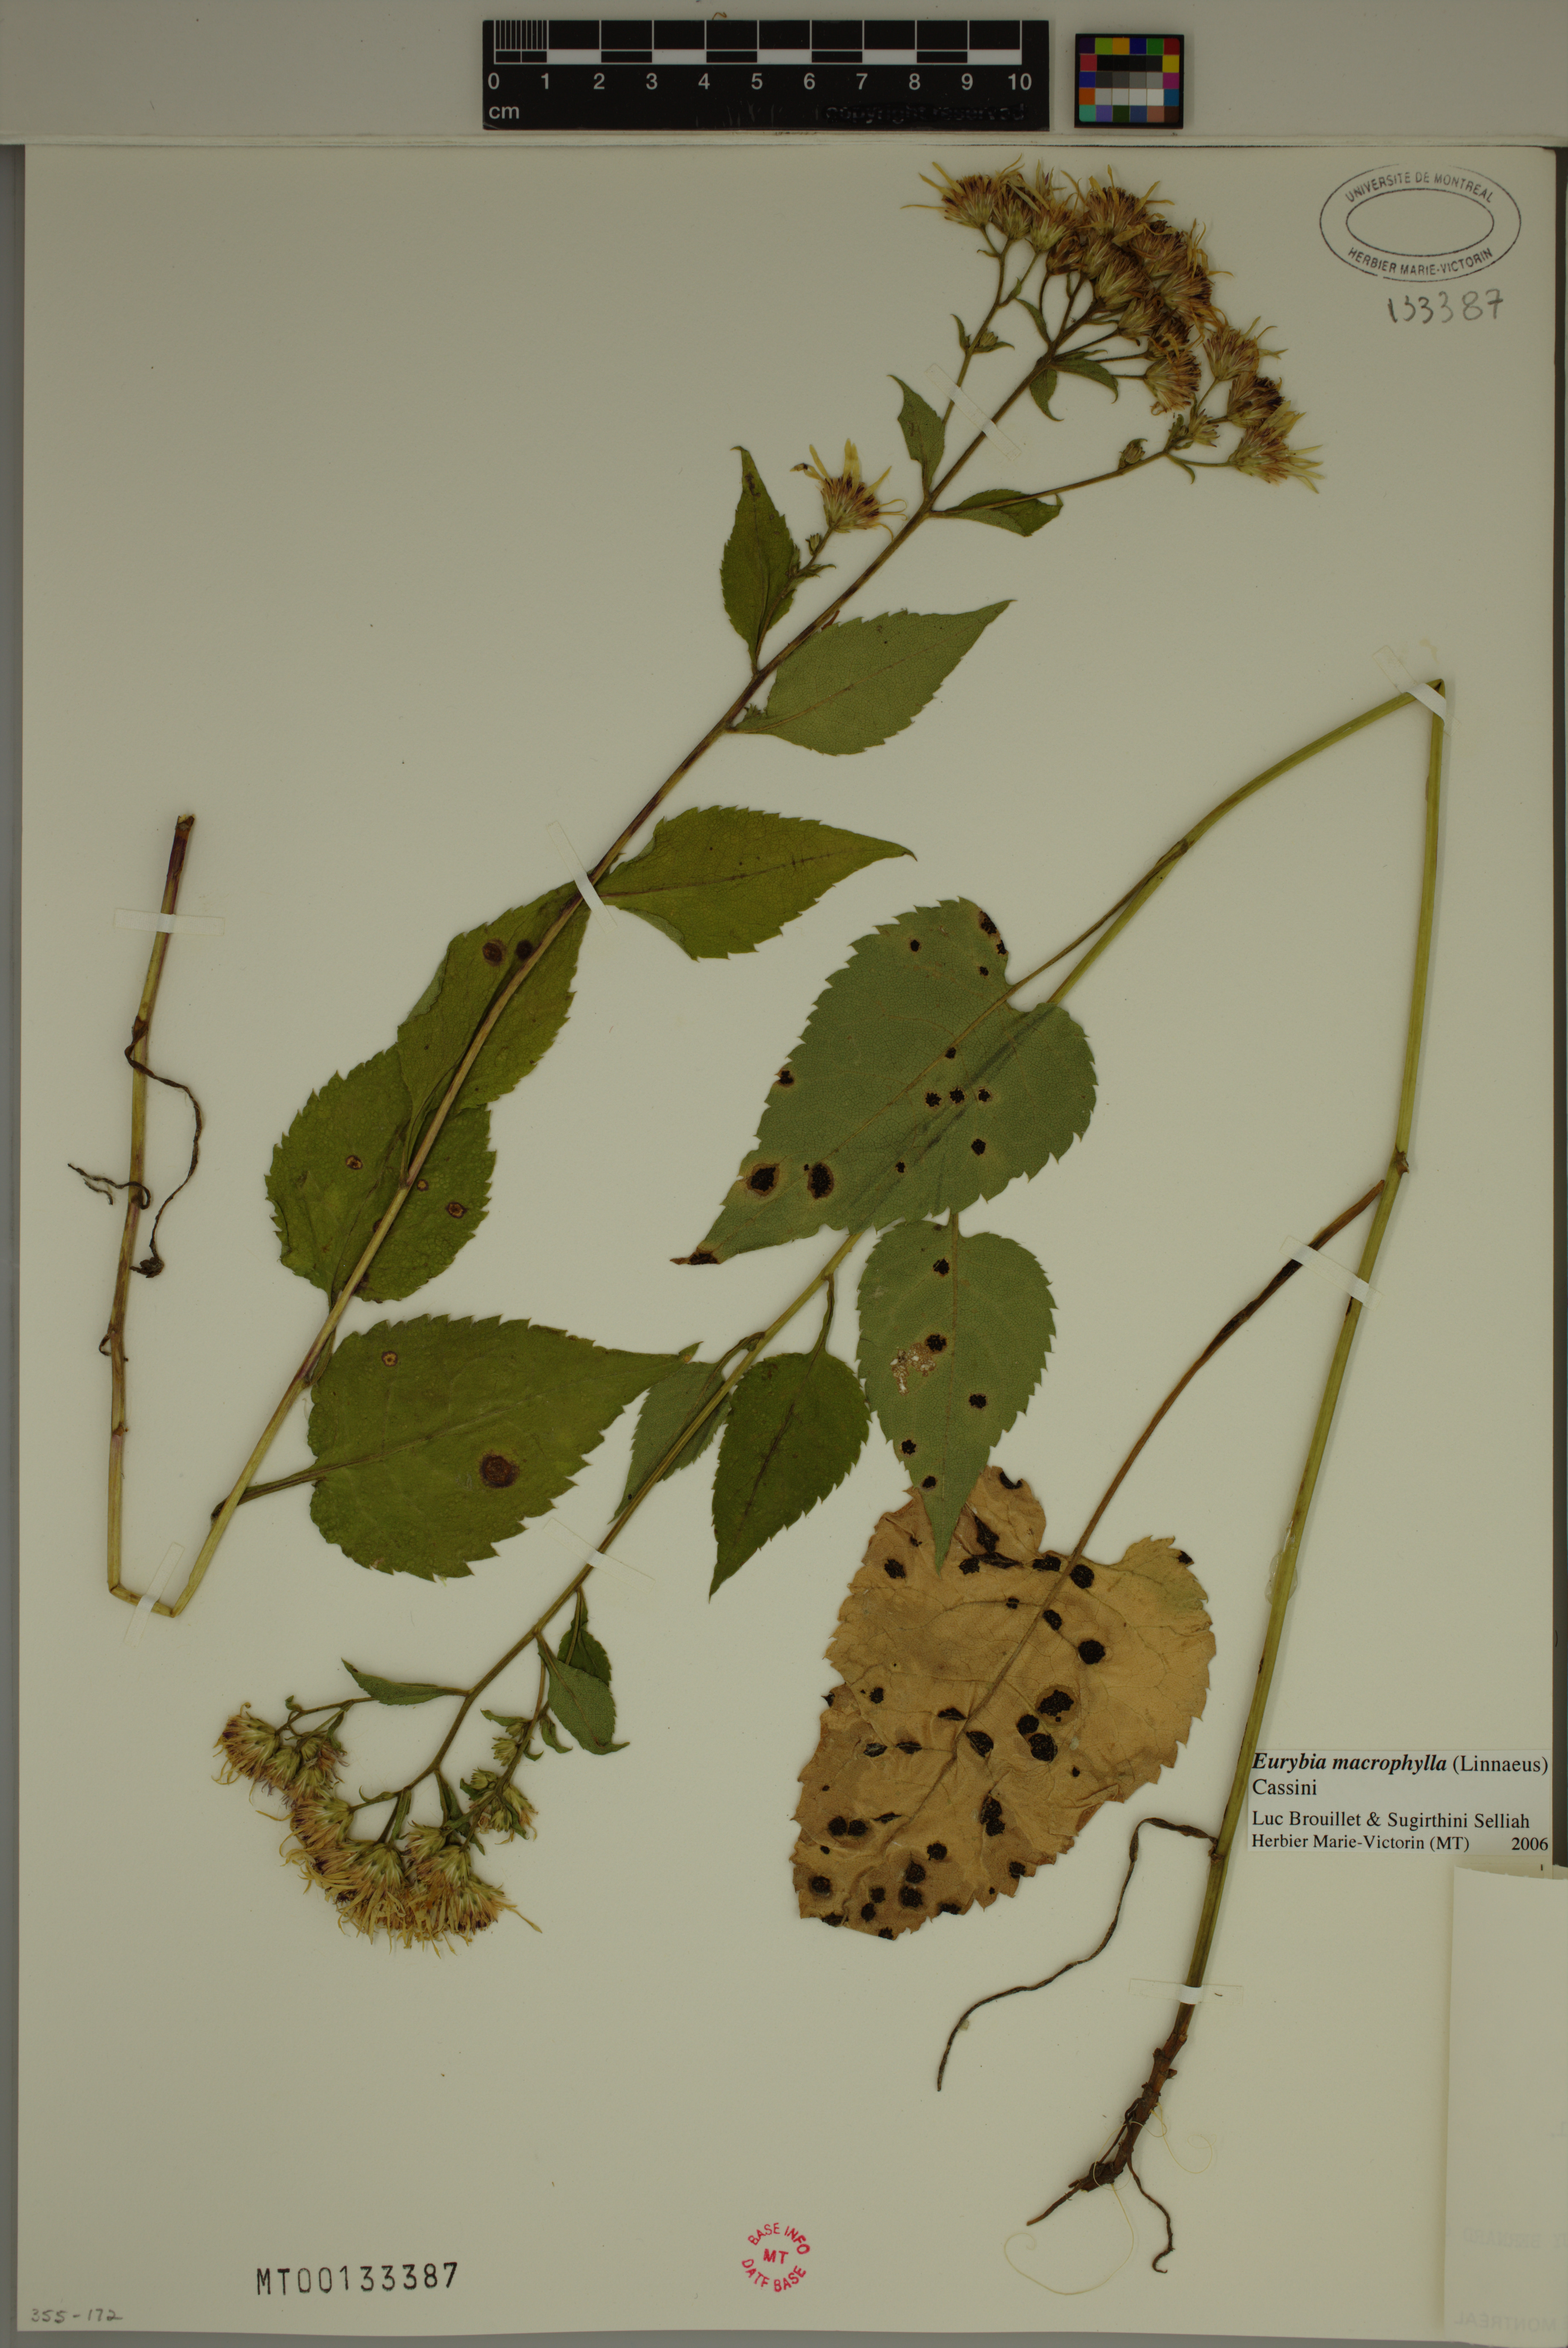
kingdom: Plantae
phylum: Tracheophyta
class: Magnoliopsida
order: Asterales
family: Asteraceae
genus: Eurybia
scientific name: Eurybia macrophylla
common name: Big-leaved aster
